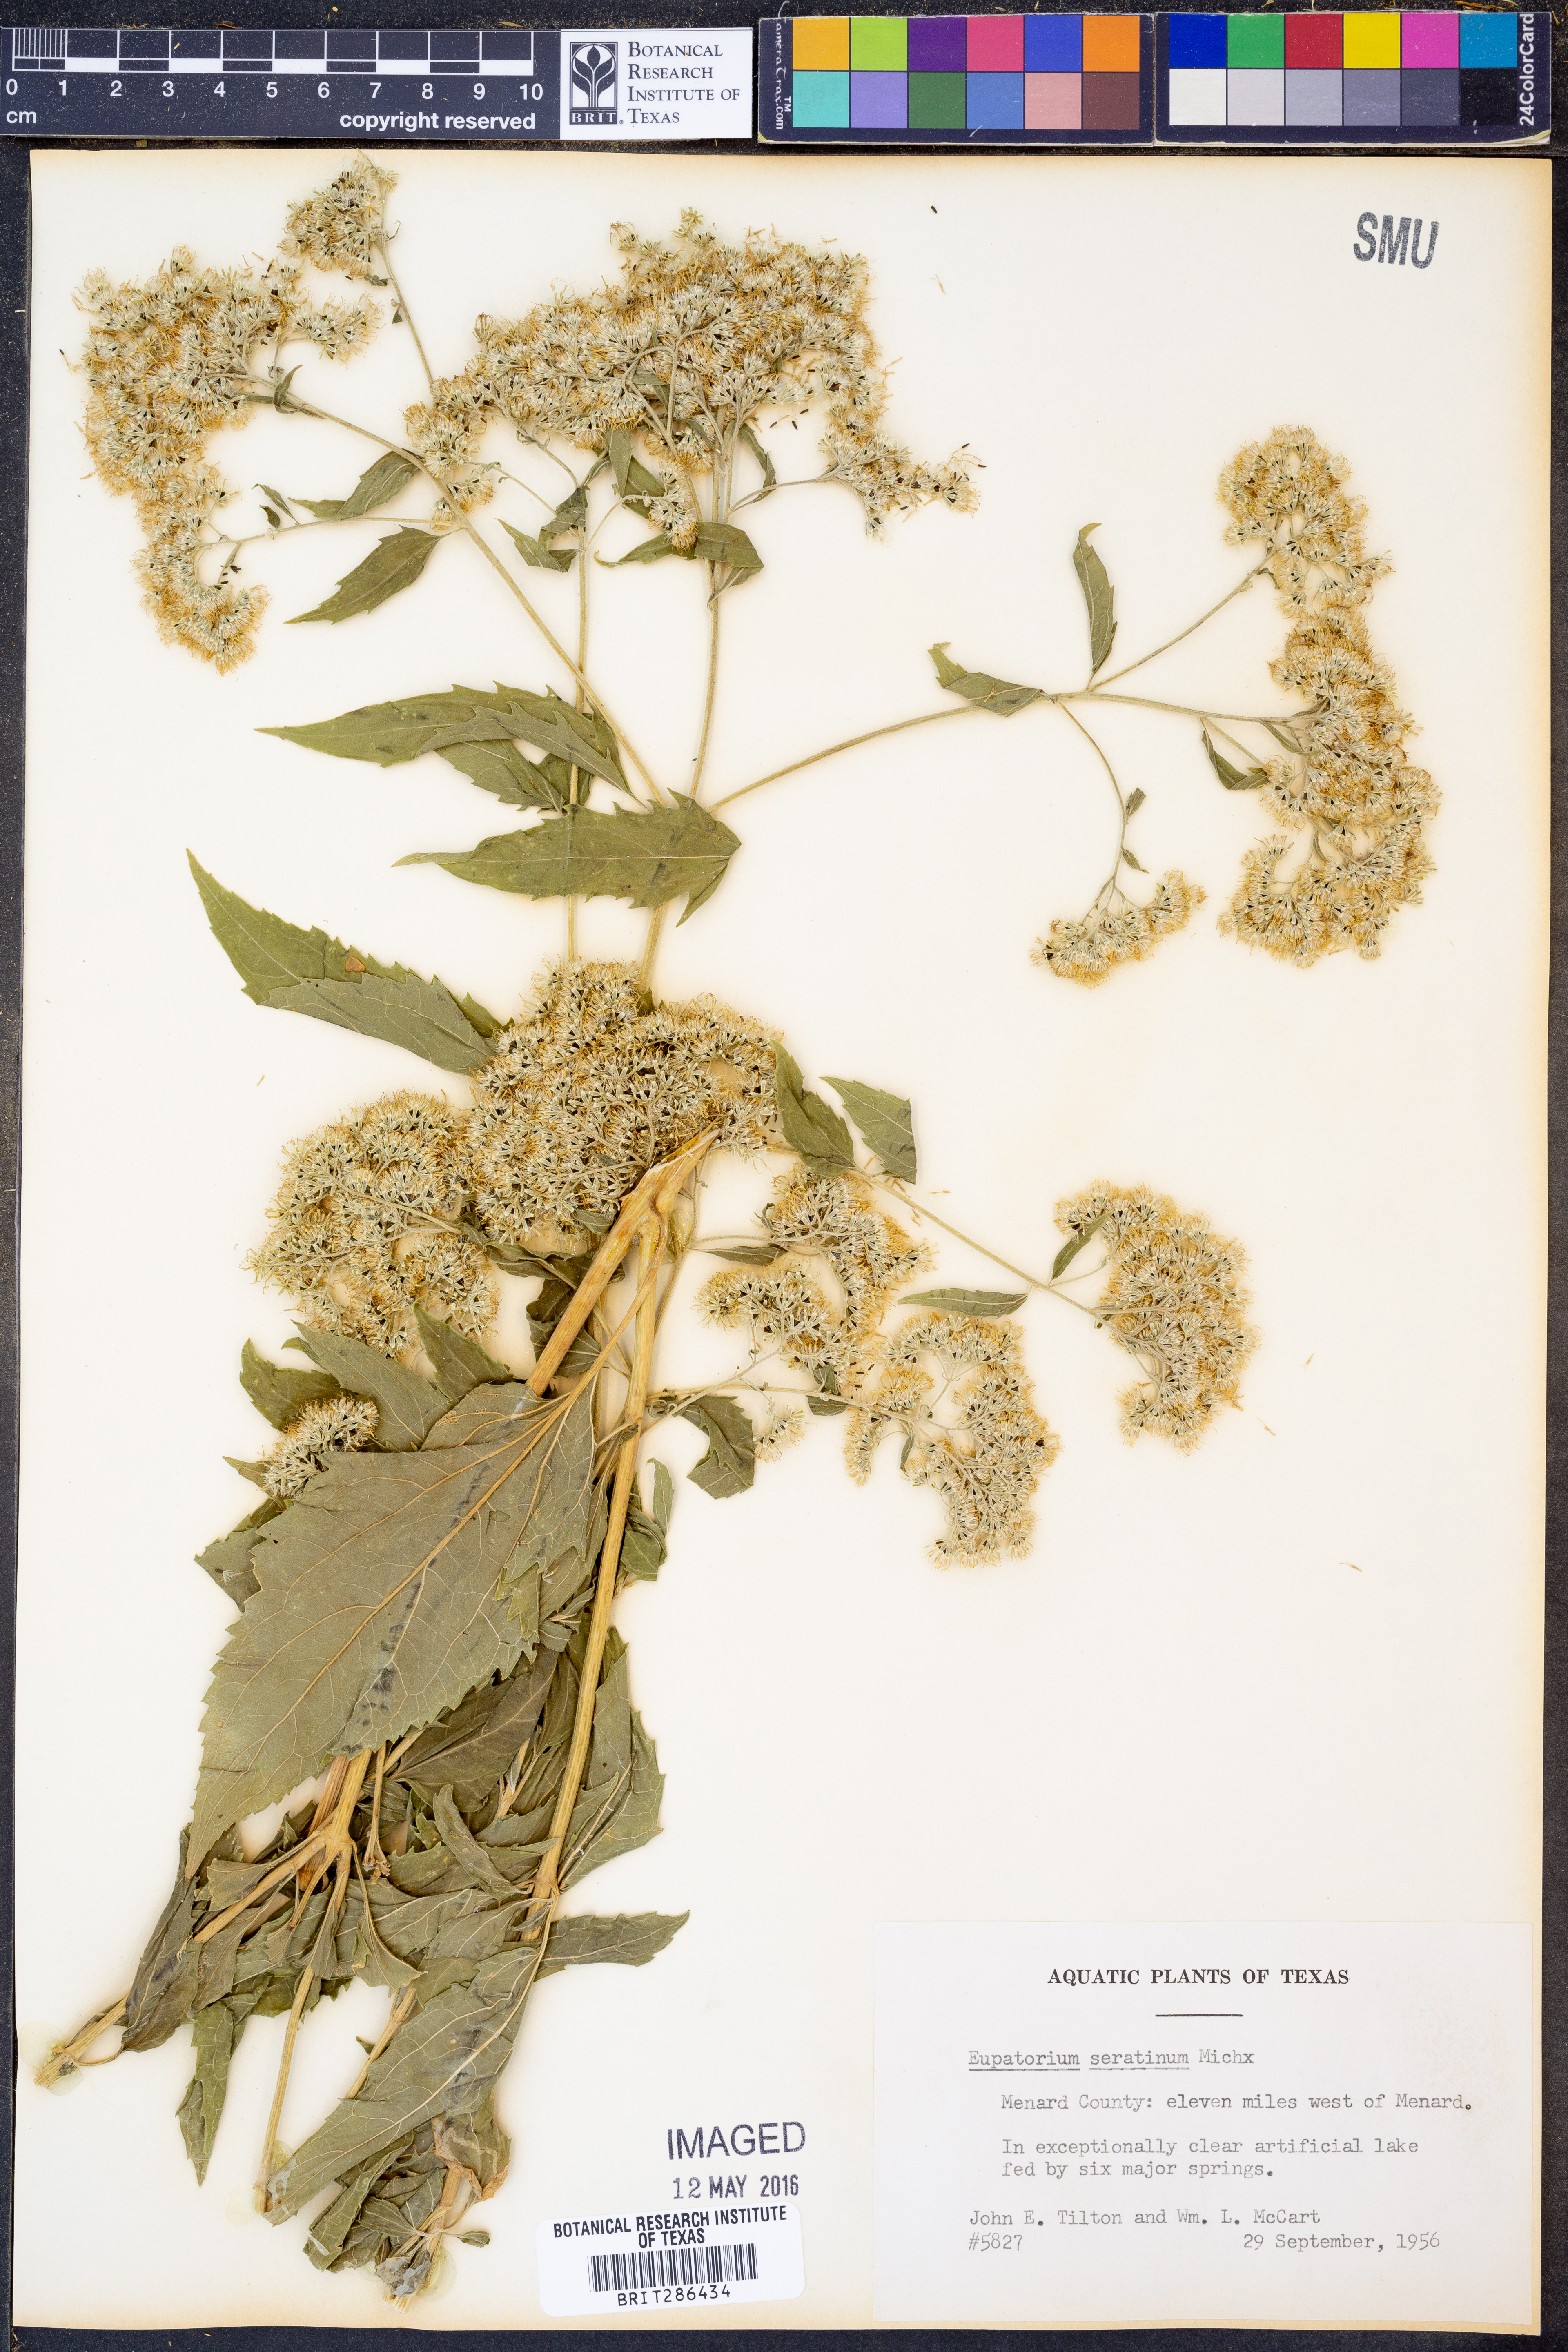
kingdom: Plantae
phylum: Tracheophyta
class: Magnoliopsida
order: Asterales
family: Asteraceae
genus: Eupatorium
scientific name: Eupatorium serotinum
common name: Late boneset
